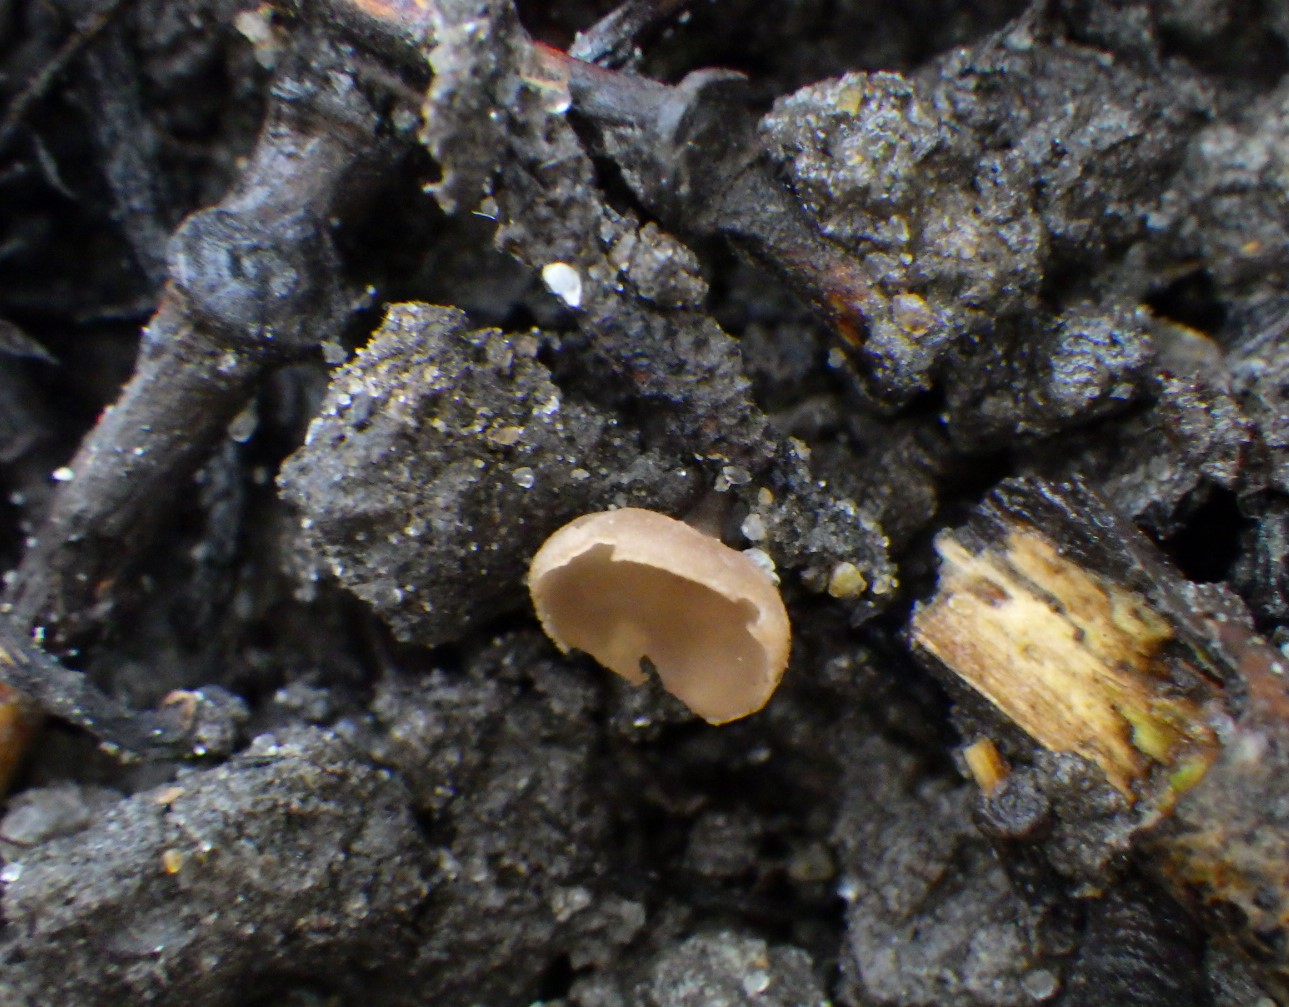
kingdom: Fungi
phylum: Ascomycota
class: Leotiomycetes
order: Helotiales
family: Sclerotiniaceae
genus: Ciboria
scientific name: Ciboria caucus
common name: rakle-knoldskive
